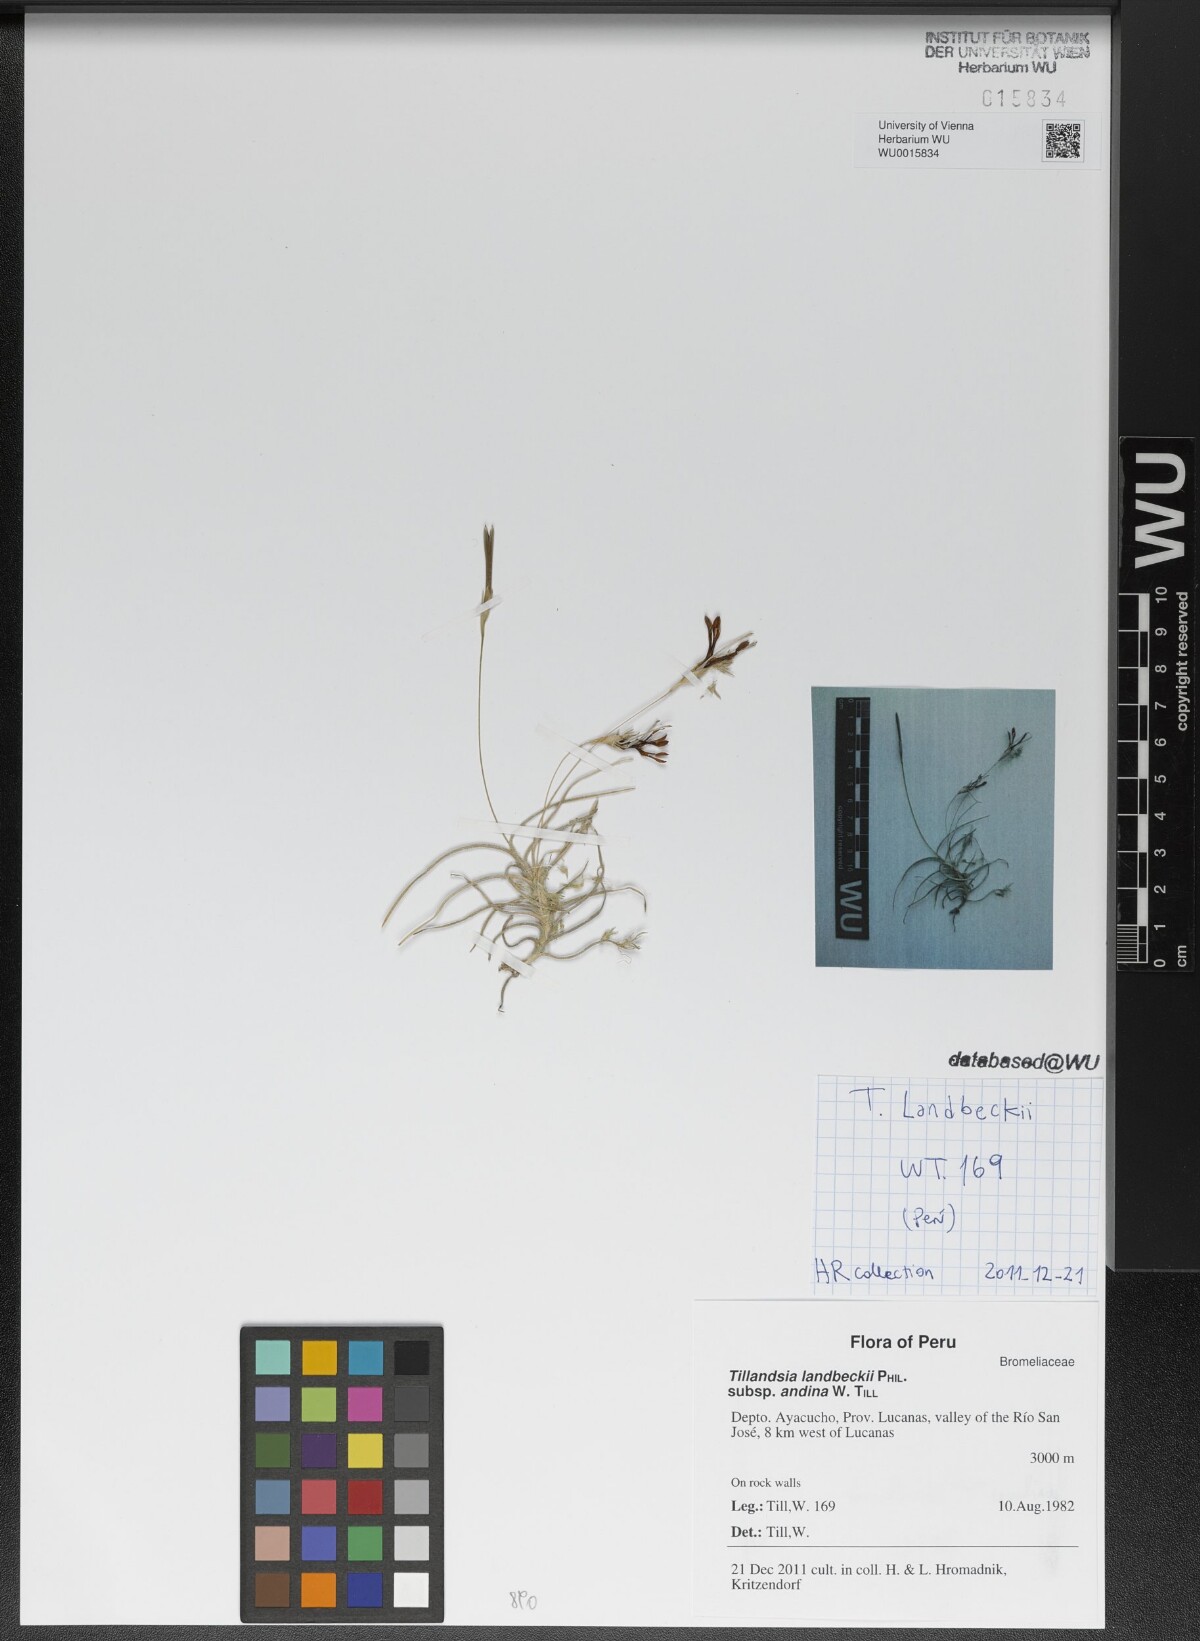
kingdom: Plantae
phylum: Tracheophyta
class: Liliopsida
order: Poales
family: Bromeliaceae
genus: Tillandsia
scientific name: Tillandsia landbeckii
